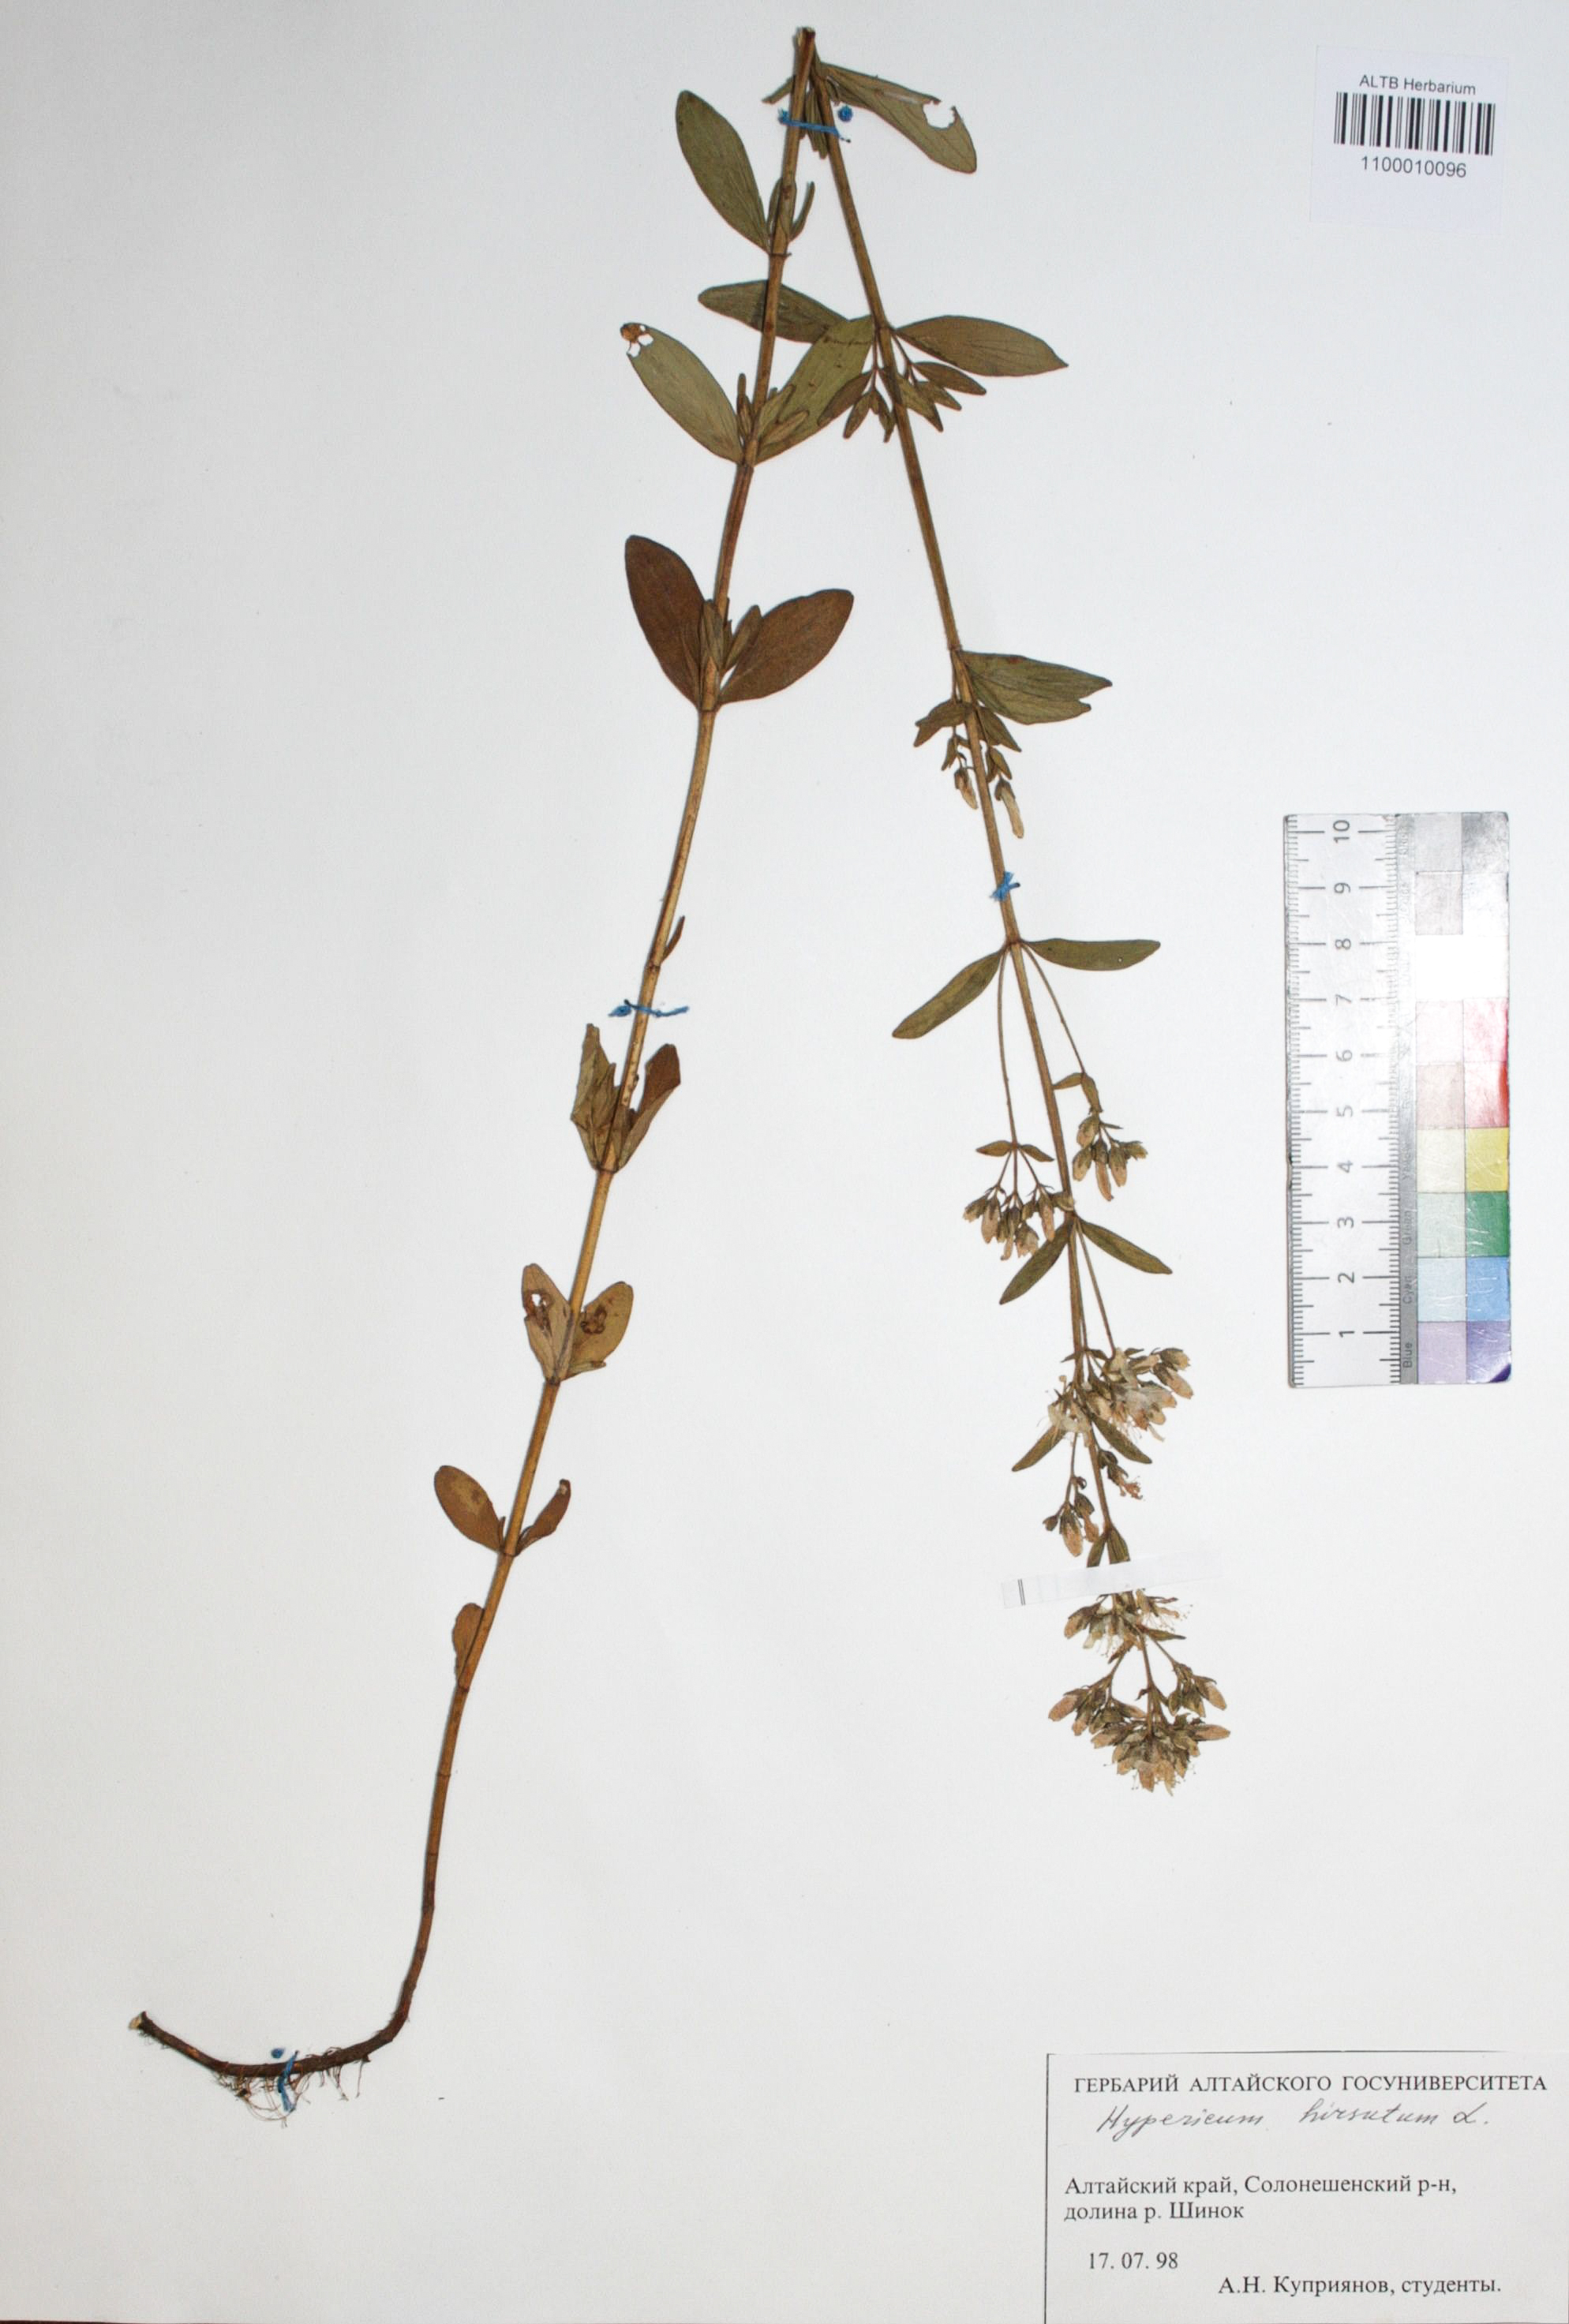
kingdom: Plantae
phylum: Tracheophyta
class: Magnoliopsida
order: Malpighiales
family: Hypericaceae
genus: Hypericum
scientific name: Hypericum hirsutum
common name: Hairy st. john's-wort
